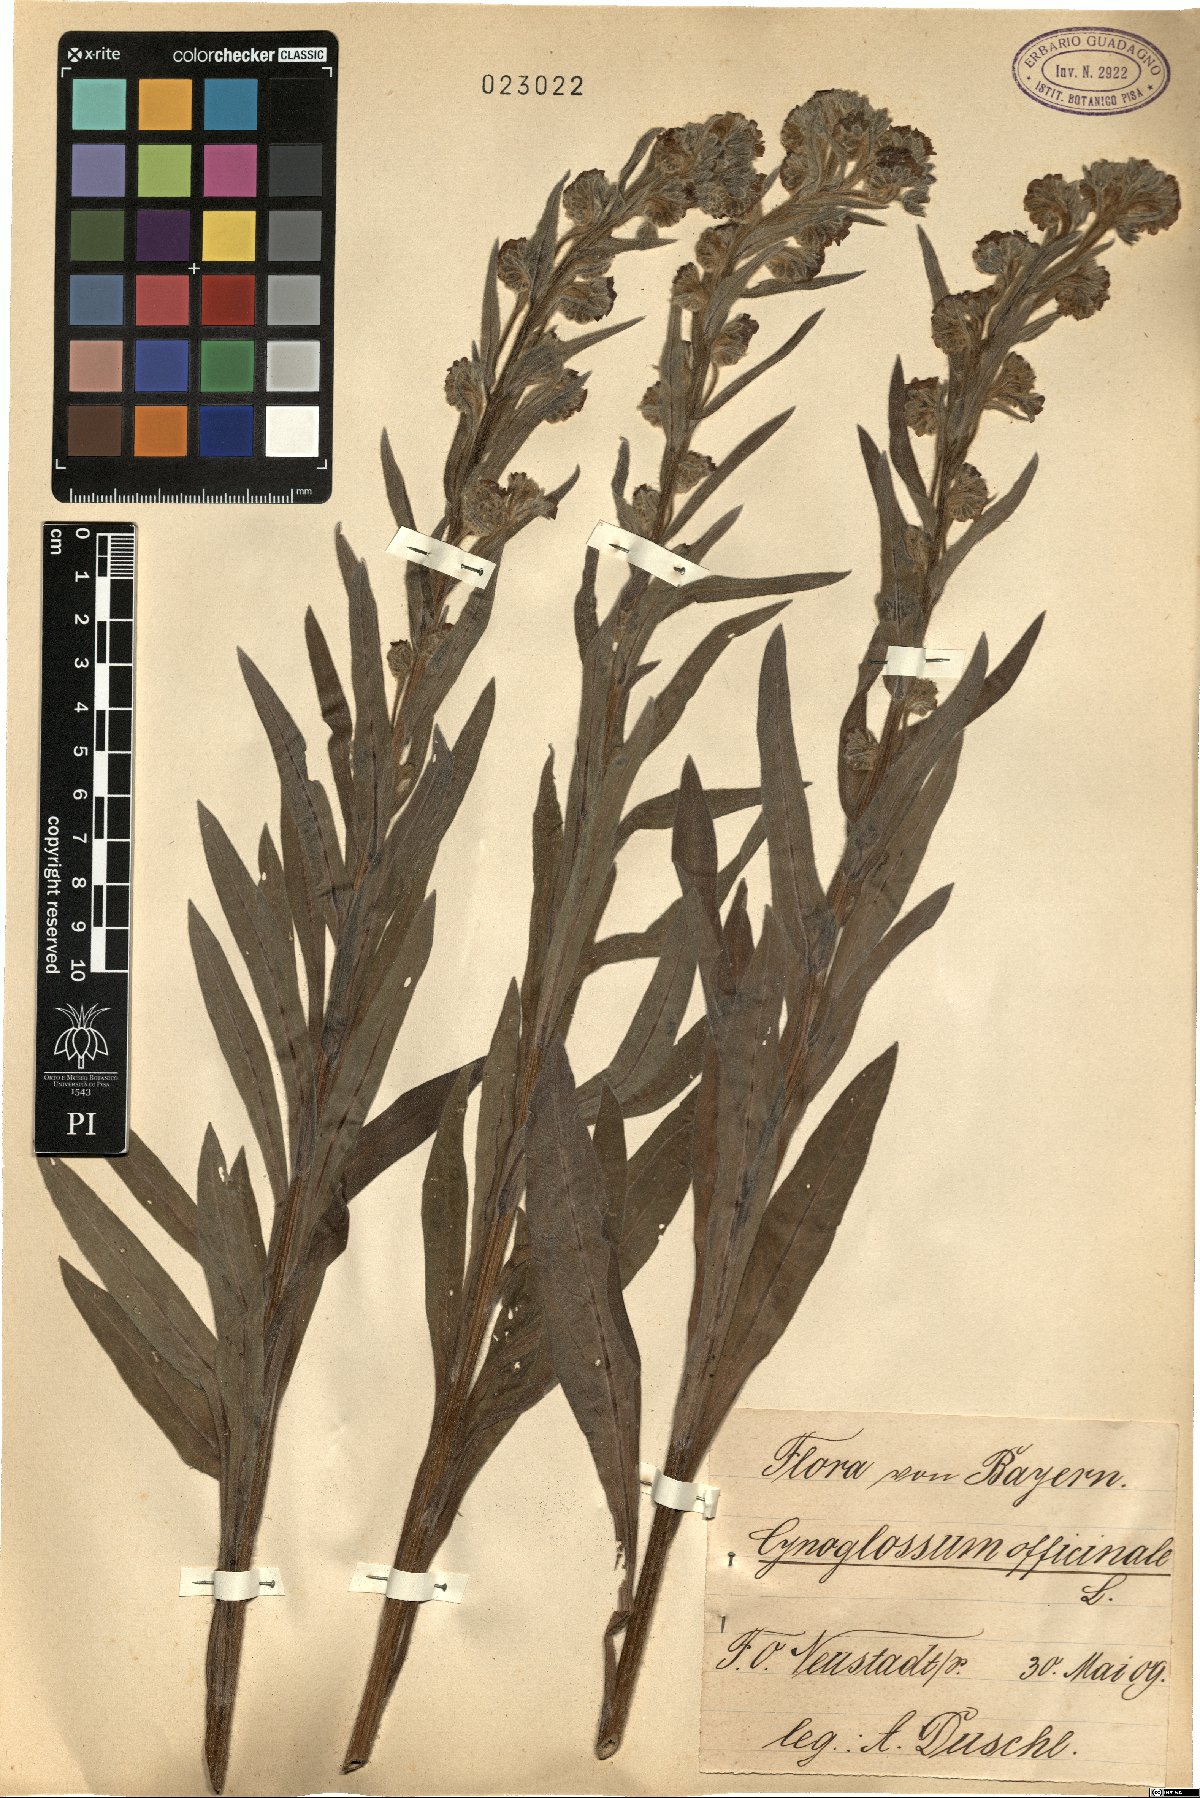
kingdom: Plantae
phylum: Tracheophyta
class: Magnoliopsida
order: Boraginales
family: Boraginaceae
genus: Cynoglossum
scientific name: Cynoglossum officinale
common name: Hound's-tongue
